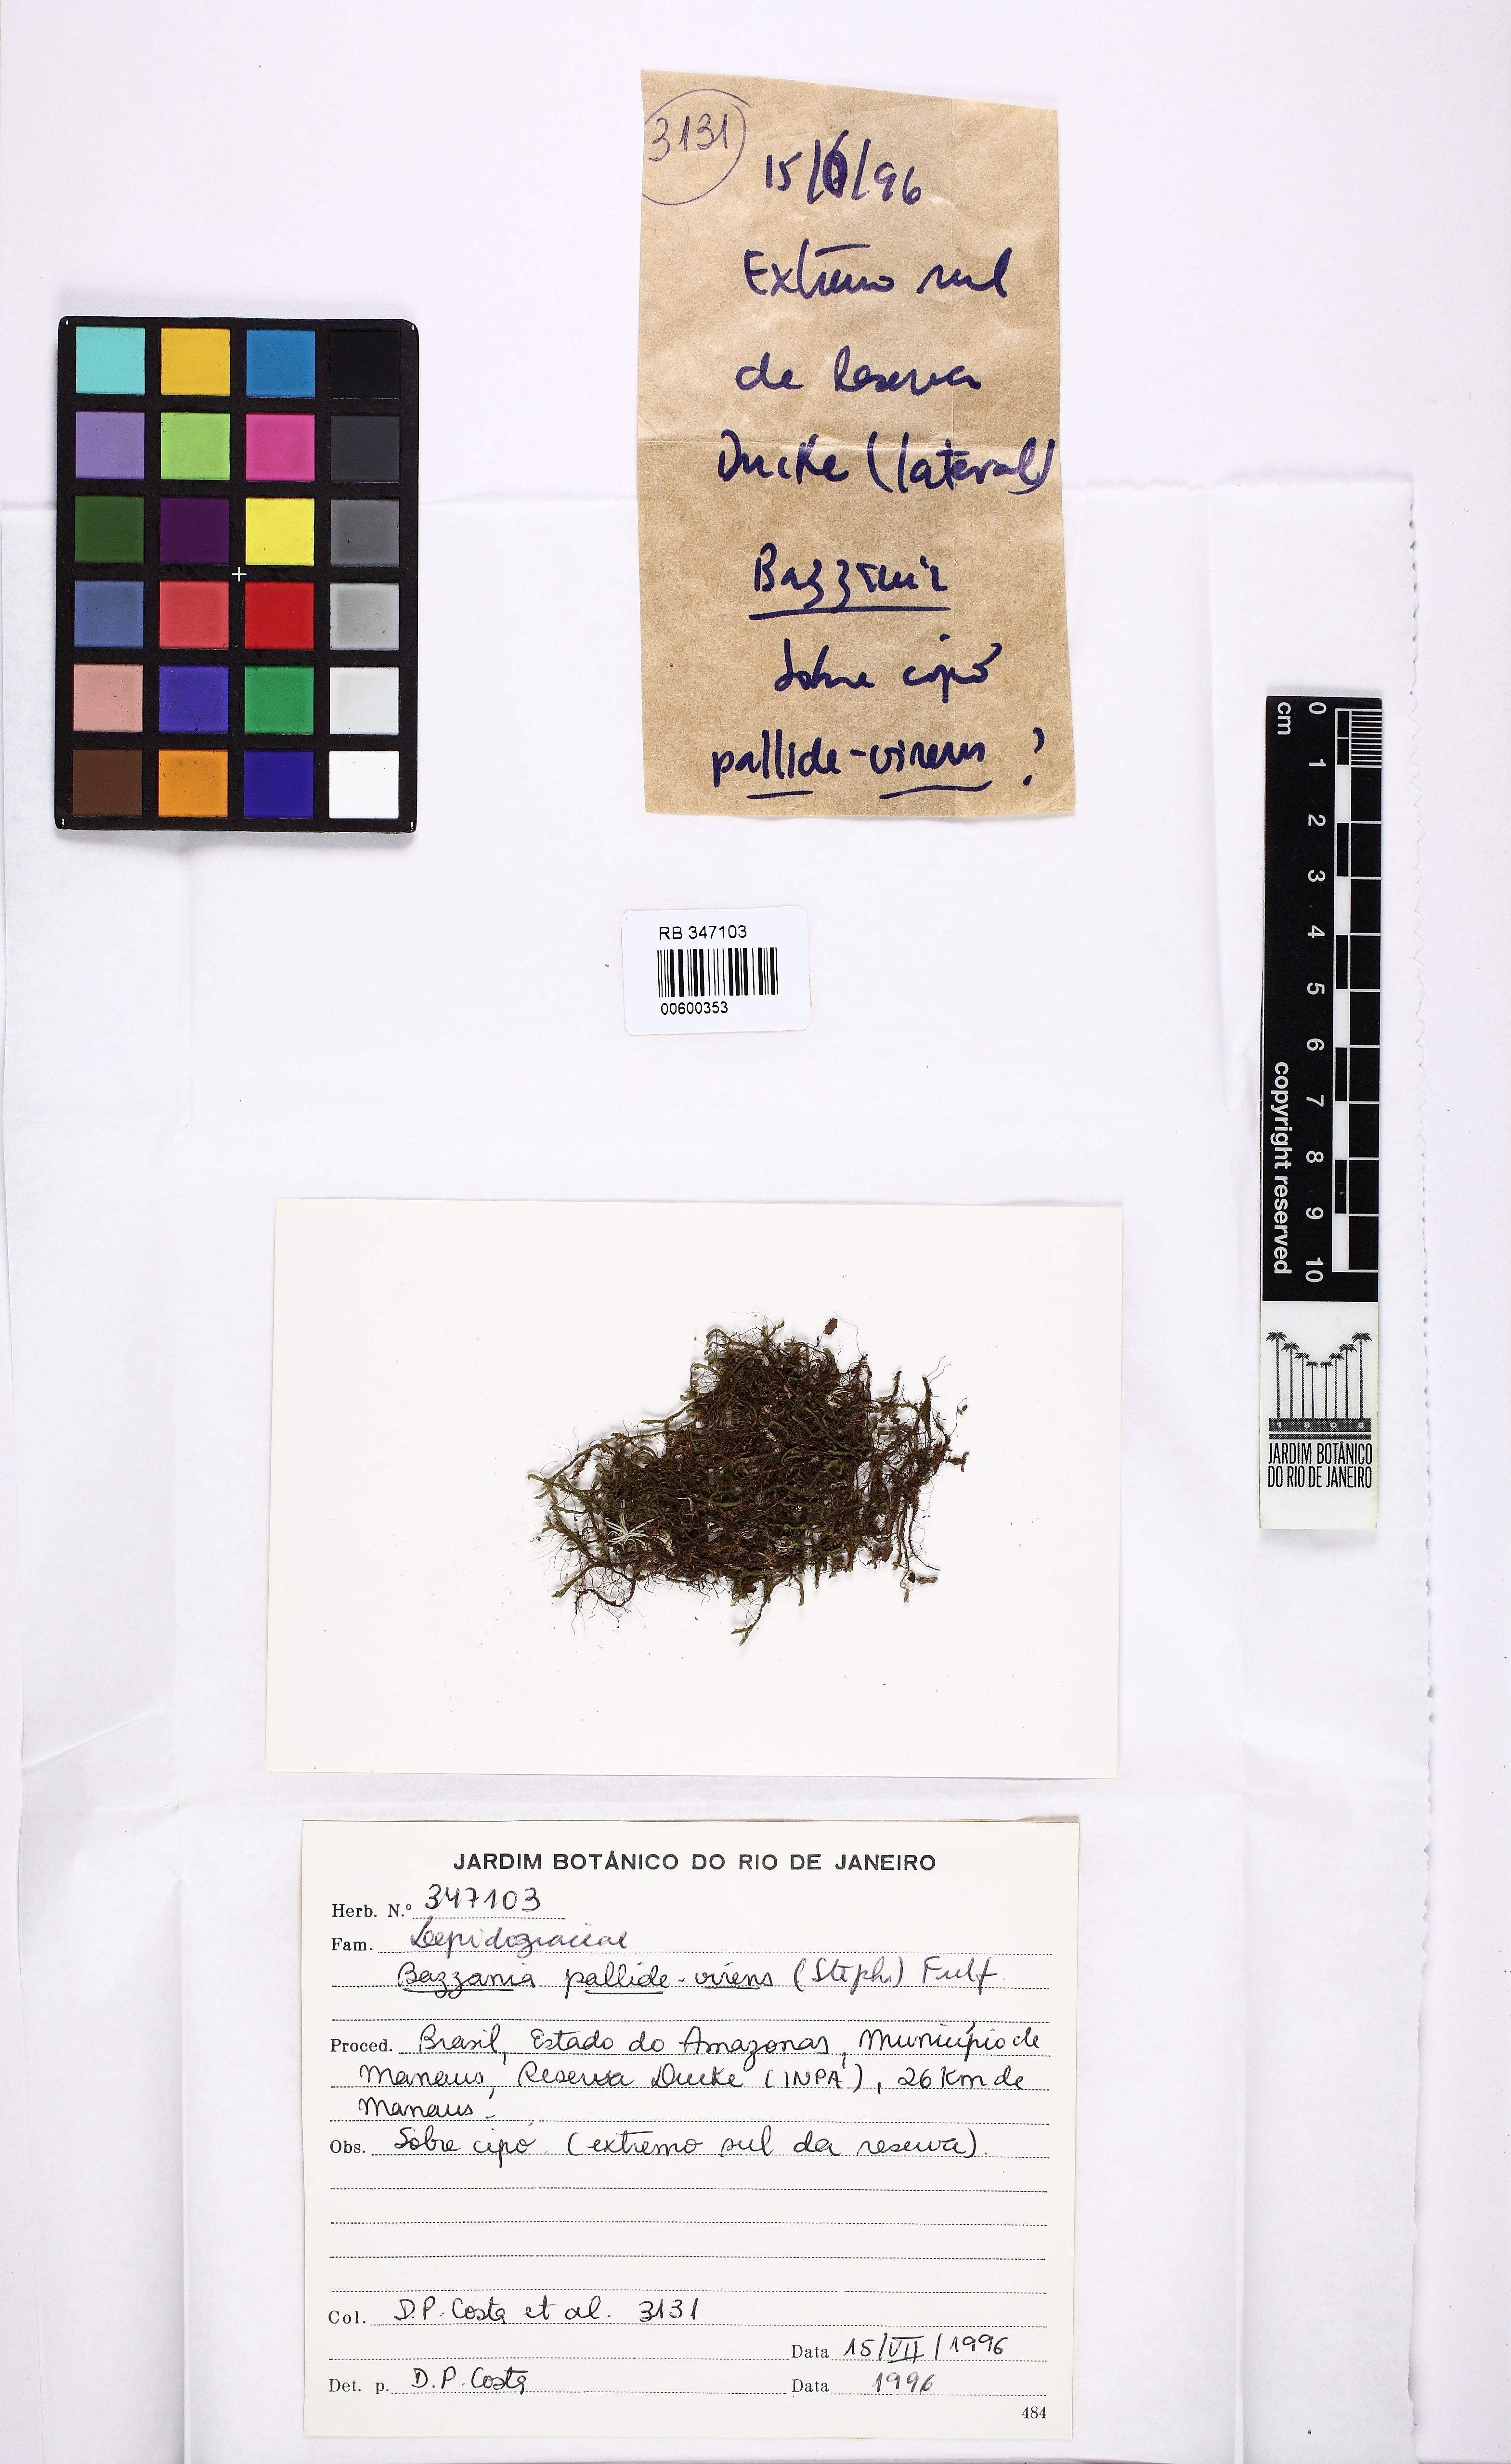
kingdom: Plantae
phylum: Marchantiophyta
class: Jungermanniopsida
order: Jungermanniales
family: Lepidoziaceae
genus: Bazzania
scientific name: Bazzania pallidevirens
